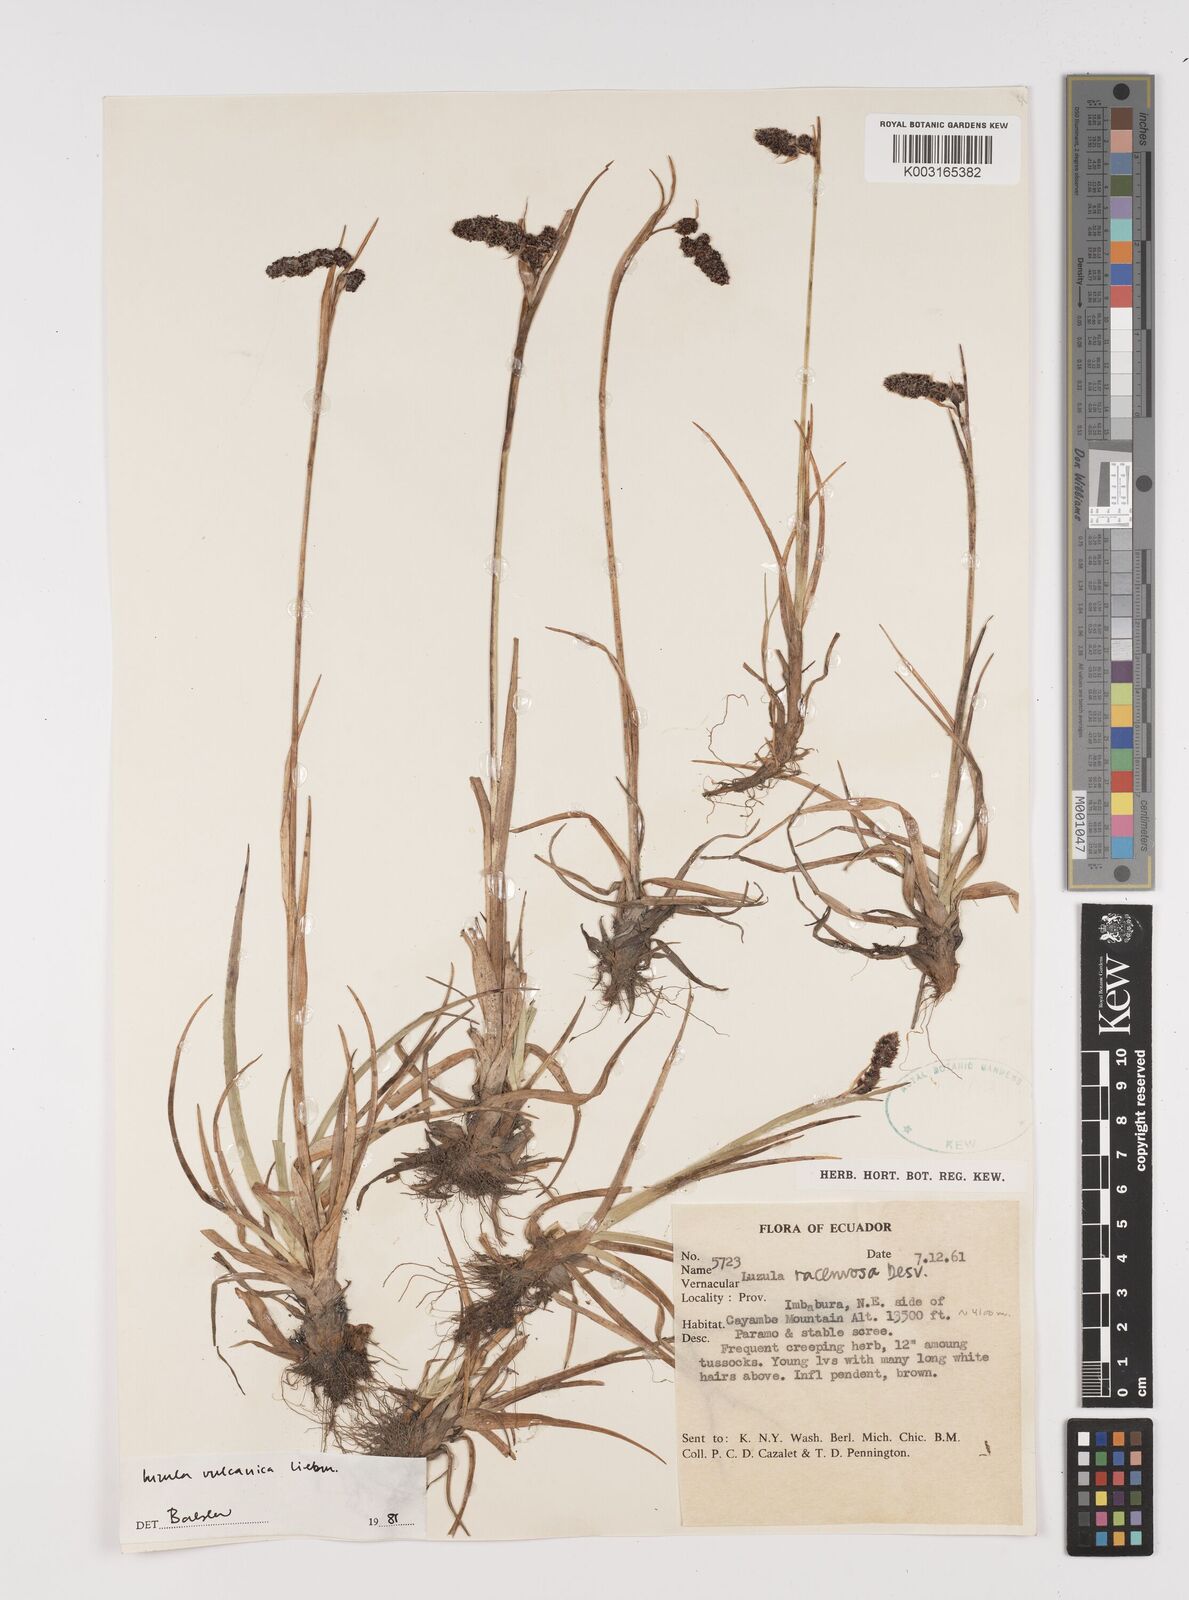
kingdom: Plantae
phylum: Tracheophyta
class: Liliopsida
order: Poales
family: Juncaceae
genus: Luzula
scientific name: Luzula vulcanica
